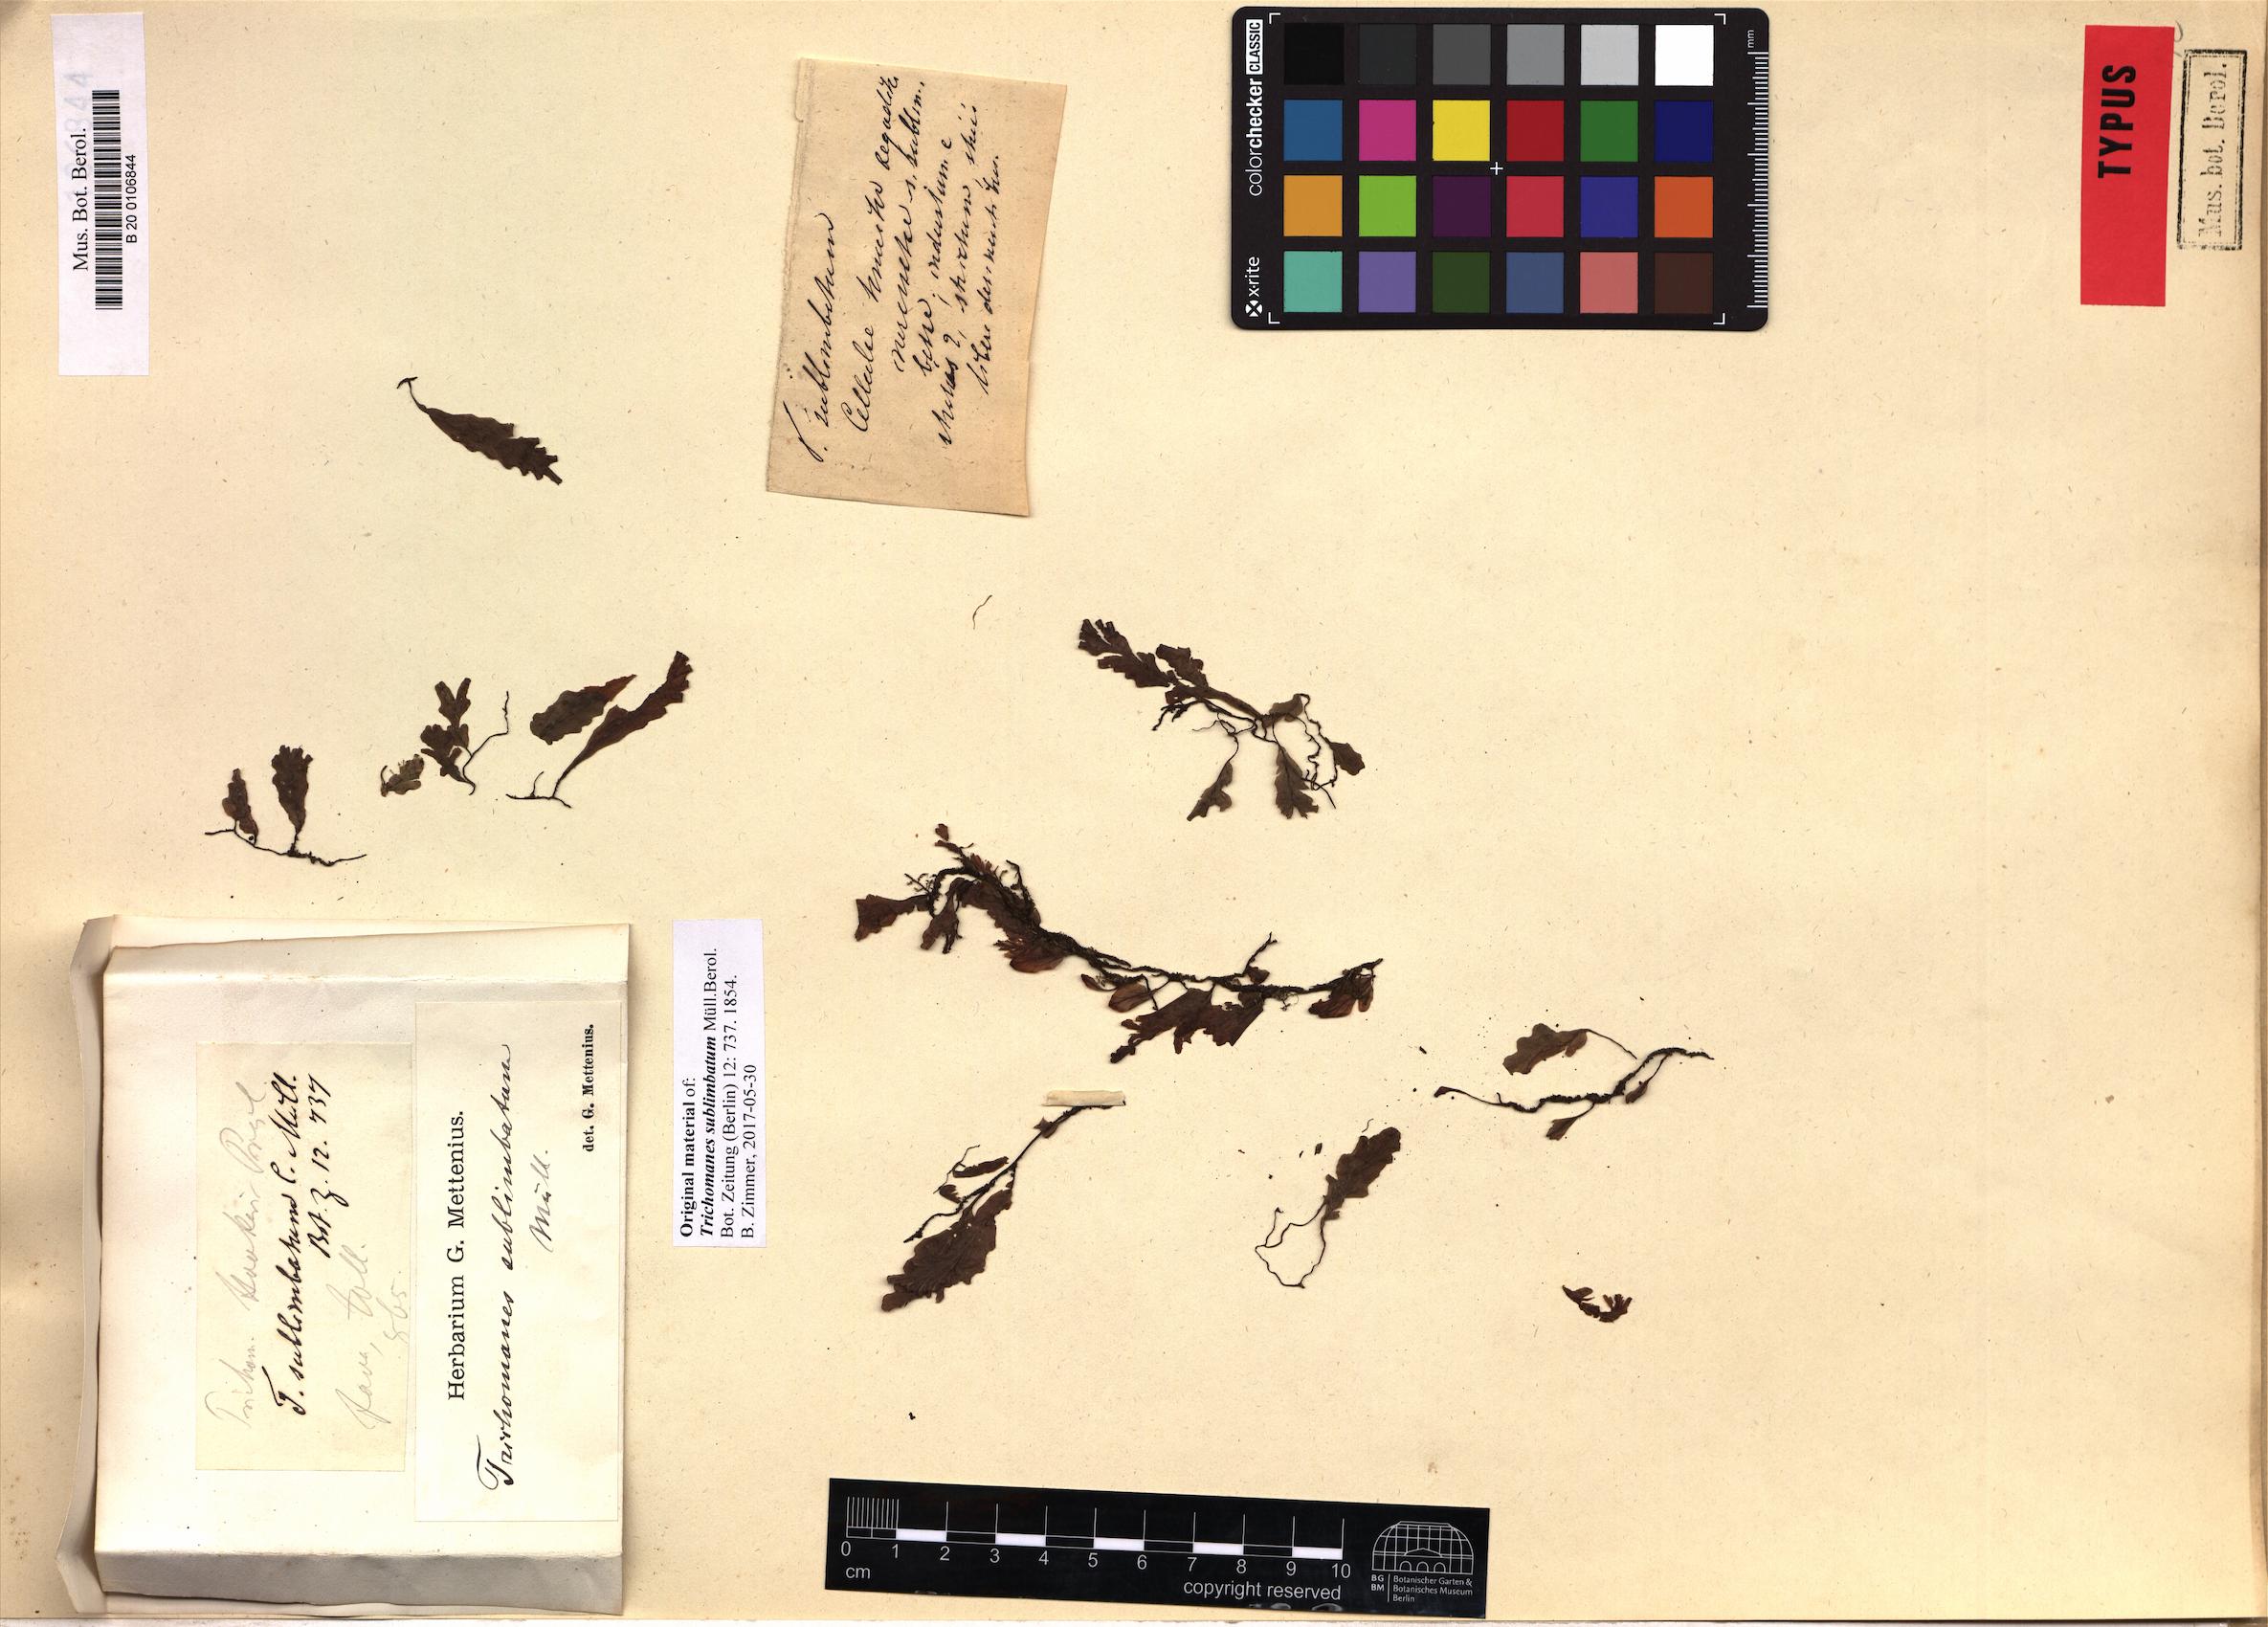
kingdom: Plantae
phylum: Tracheophyta
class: Polypodiopsida
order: Hymenophyllales
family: Hymenophyllaceae
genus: Trichomanes
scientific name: Trichomanes sublimbatum
